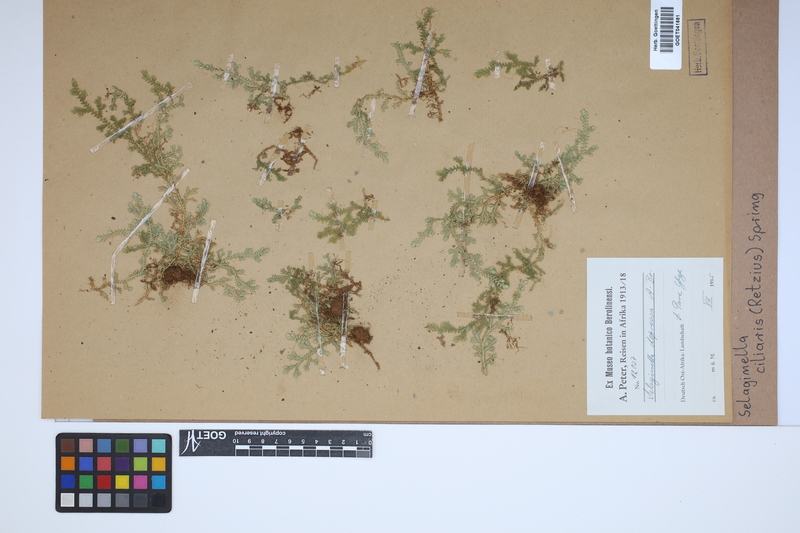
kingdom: Plantae
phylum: Tracheophyta
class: Lycopodiopsida
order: Selaginellales
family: Selaginellaceae
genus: Selaginella
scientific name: Selaginella ciliaris
